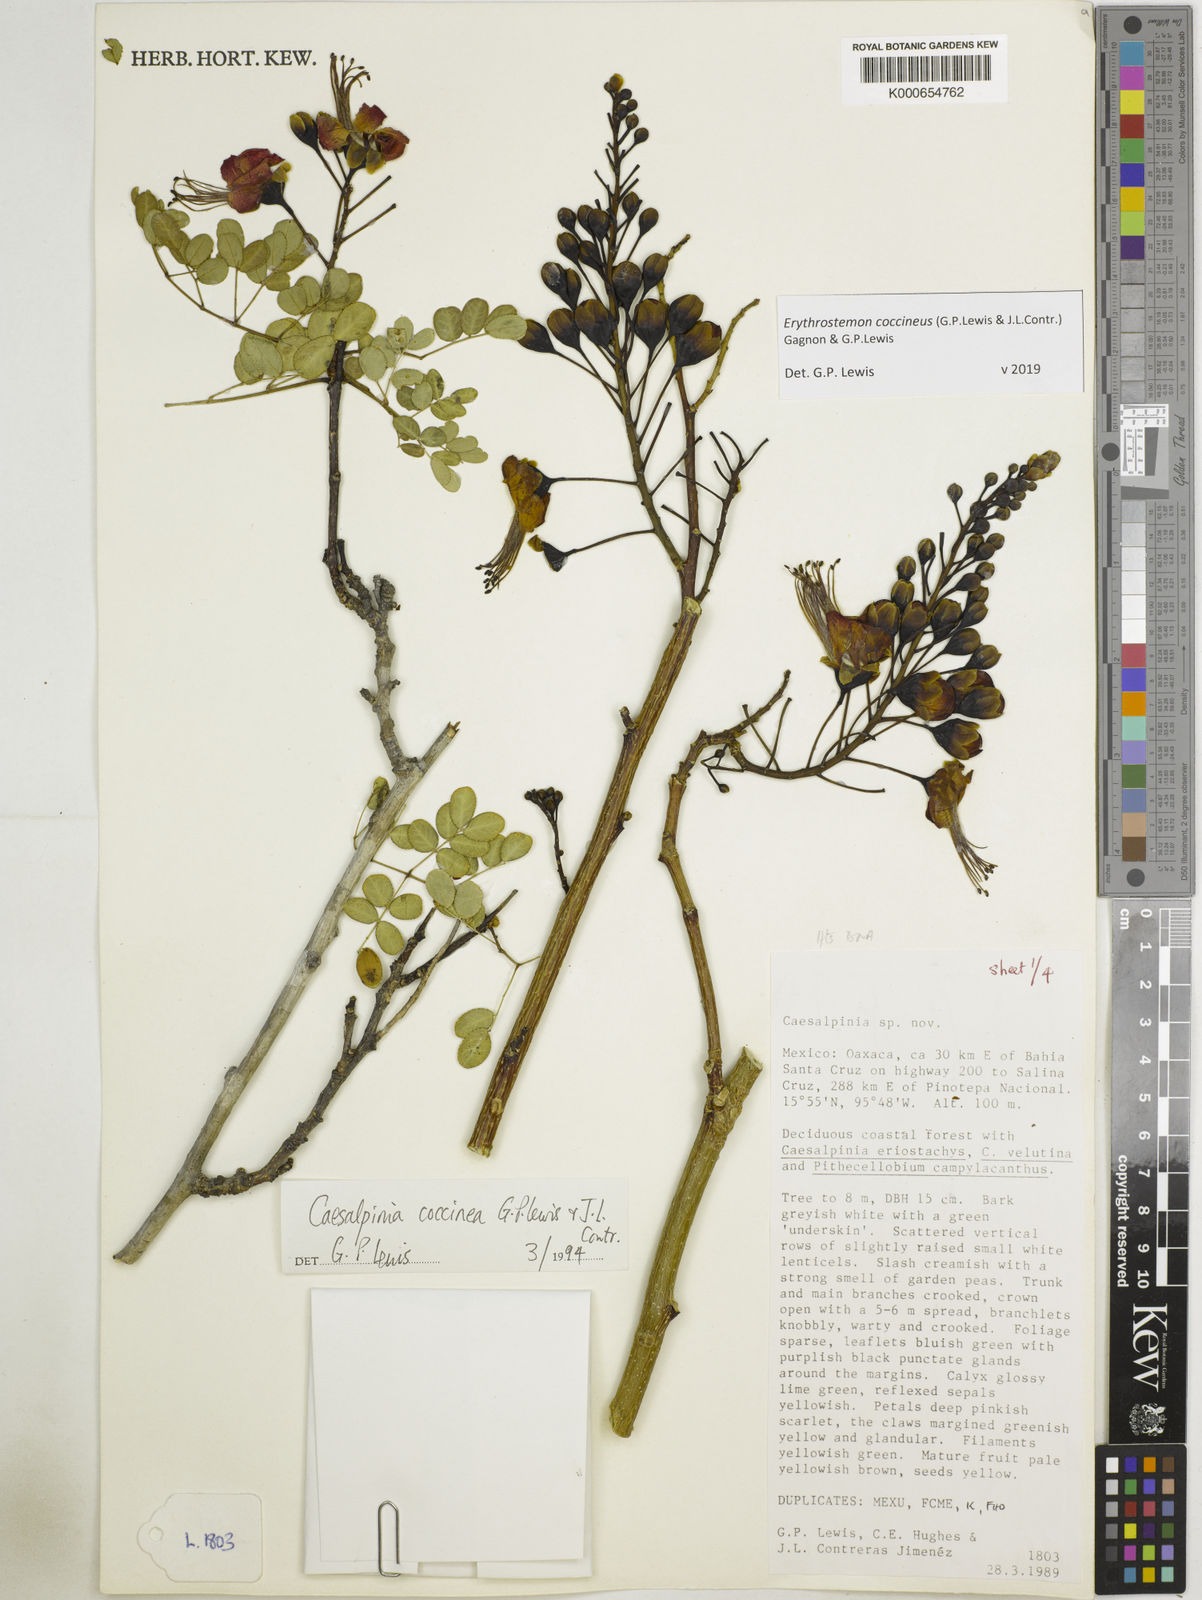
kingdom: Plantae
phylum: Tracheophyta
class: Magnoliopsida
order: Fabales
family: Fabaceae
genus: Erythrostemon
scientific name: Erythrostemon coccineus
